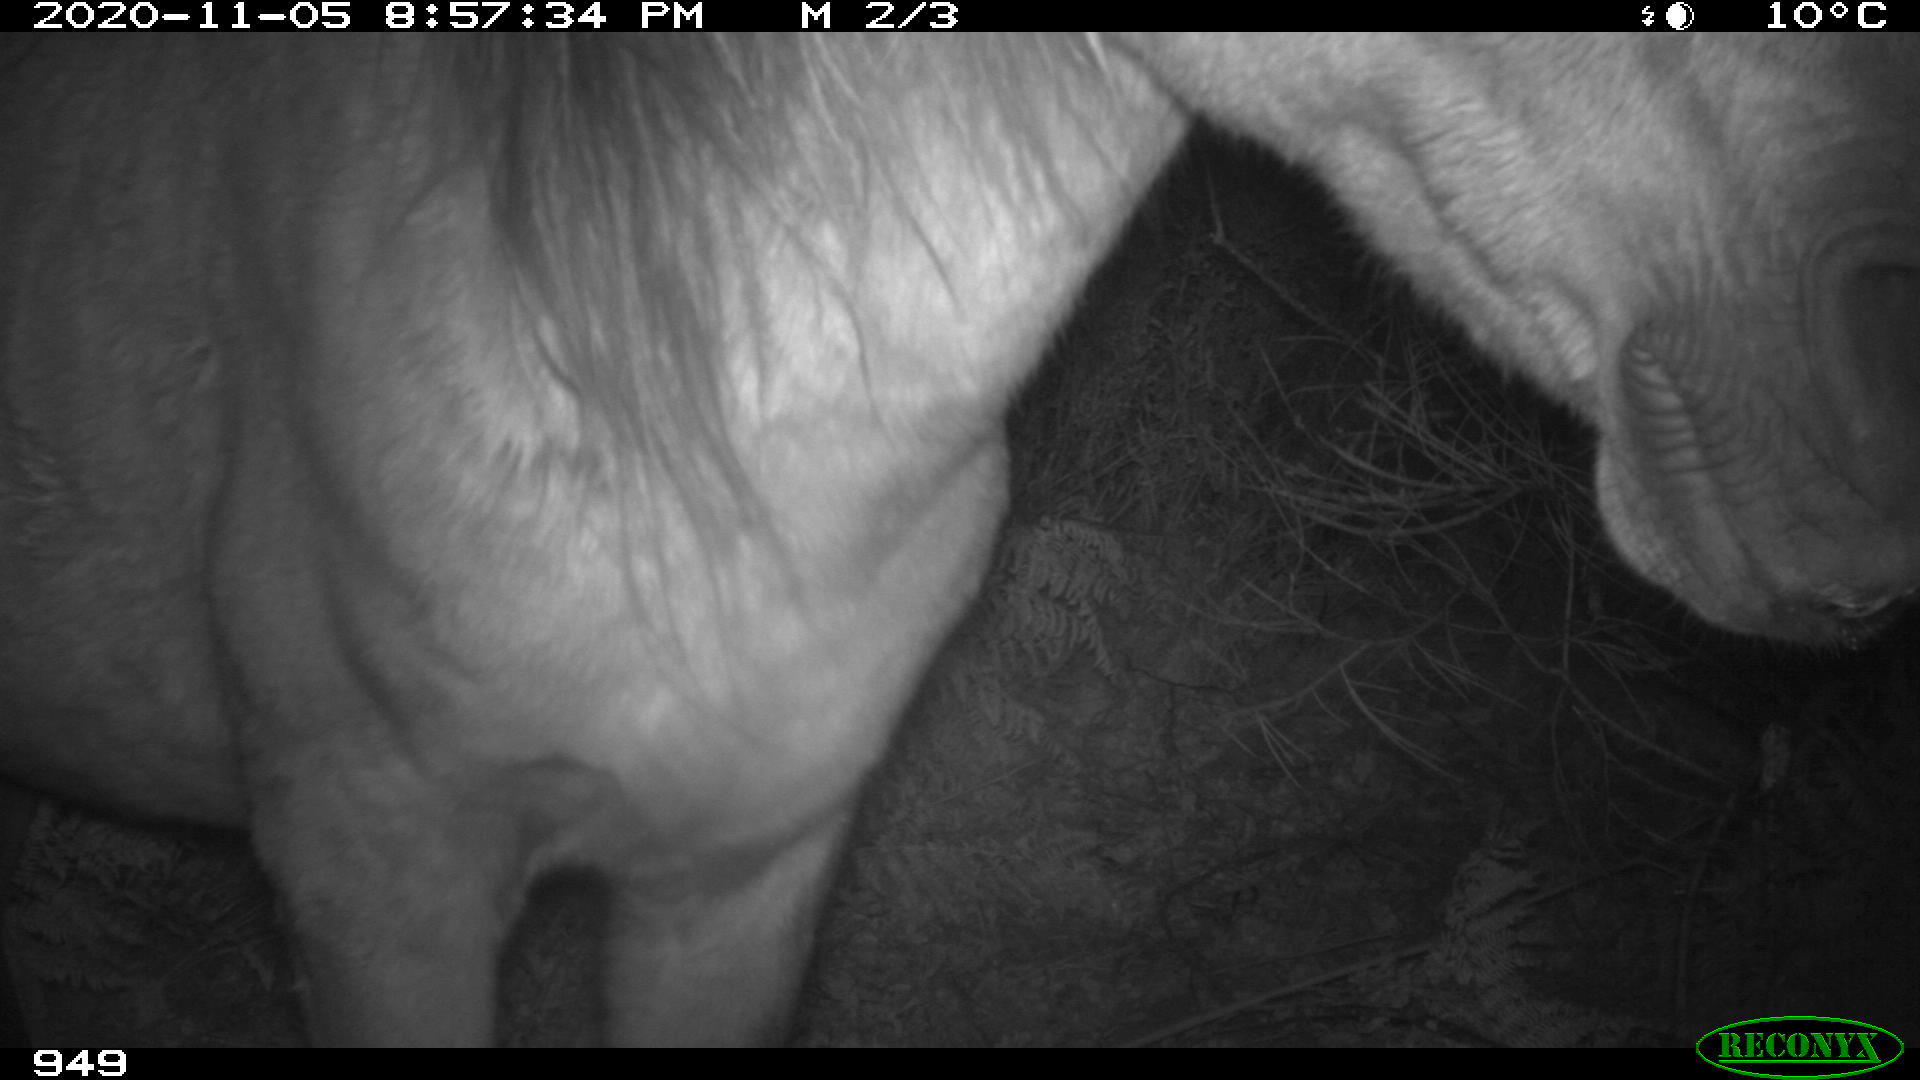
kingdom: Animalia
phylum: Chordata
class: Mammalia
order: Perissodactyla
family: Equidae
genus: Equus
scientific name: Equus caballus
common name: Horse
